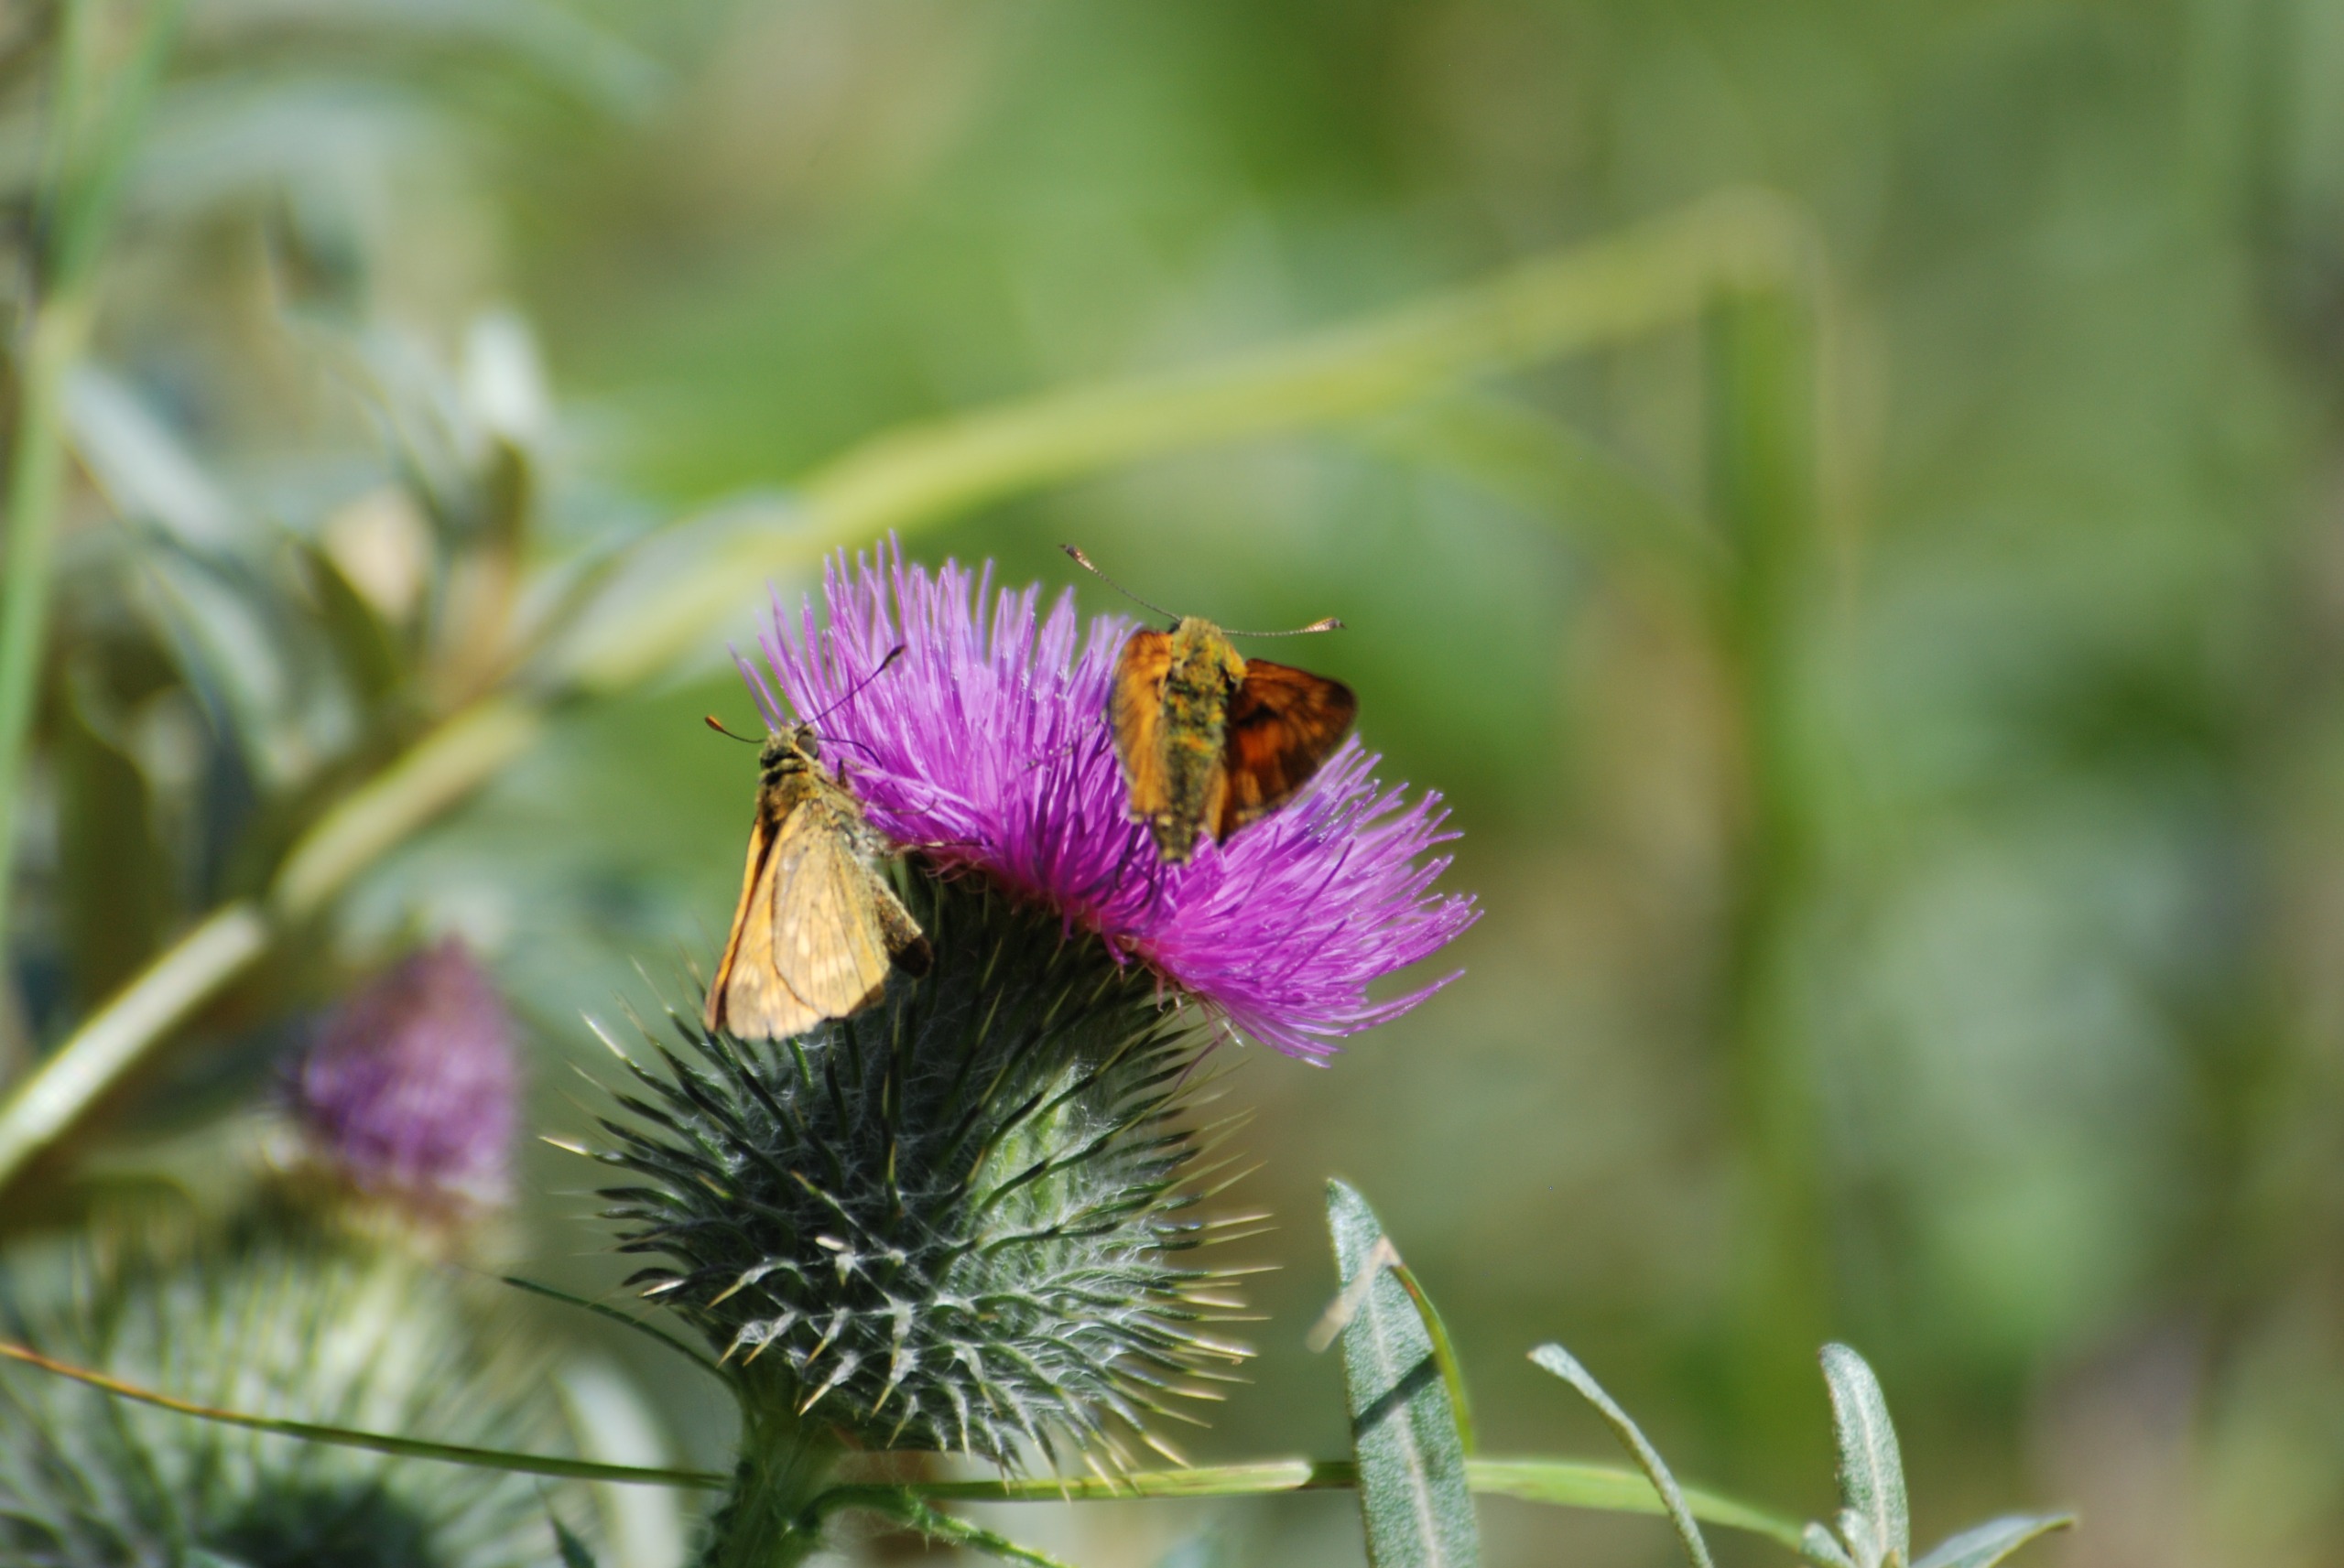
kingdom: Animalia
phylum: Arthropoda
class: Insecta
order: Lepidoptera
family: Hesperiidae
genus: Ochlodes
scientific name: Ochlodes venata
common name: Stor bredpande
